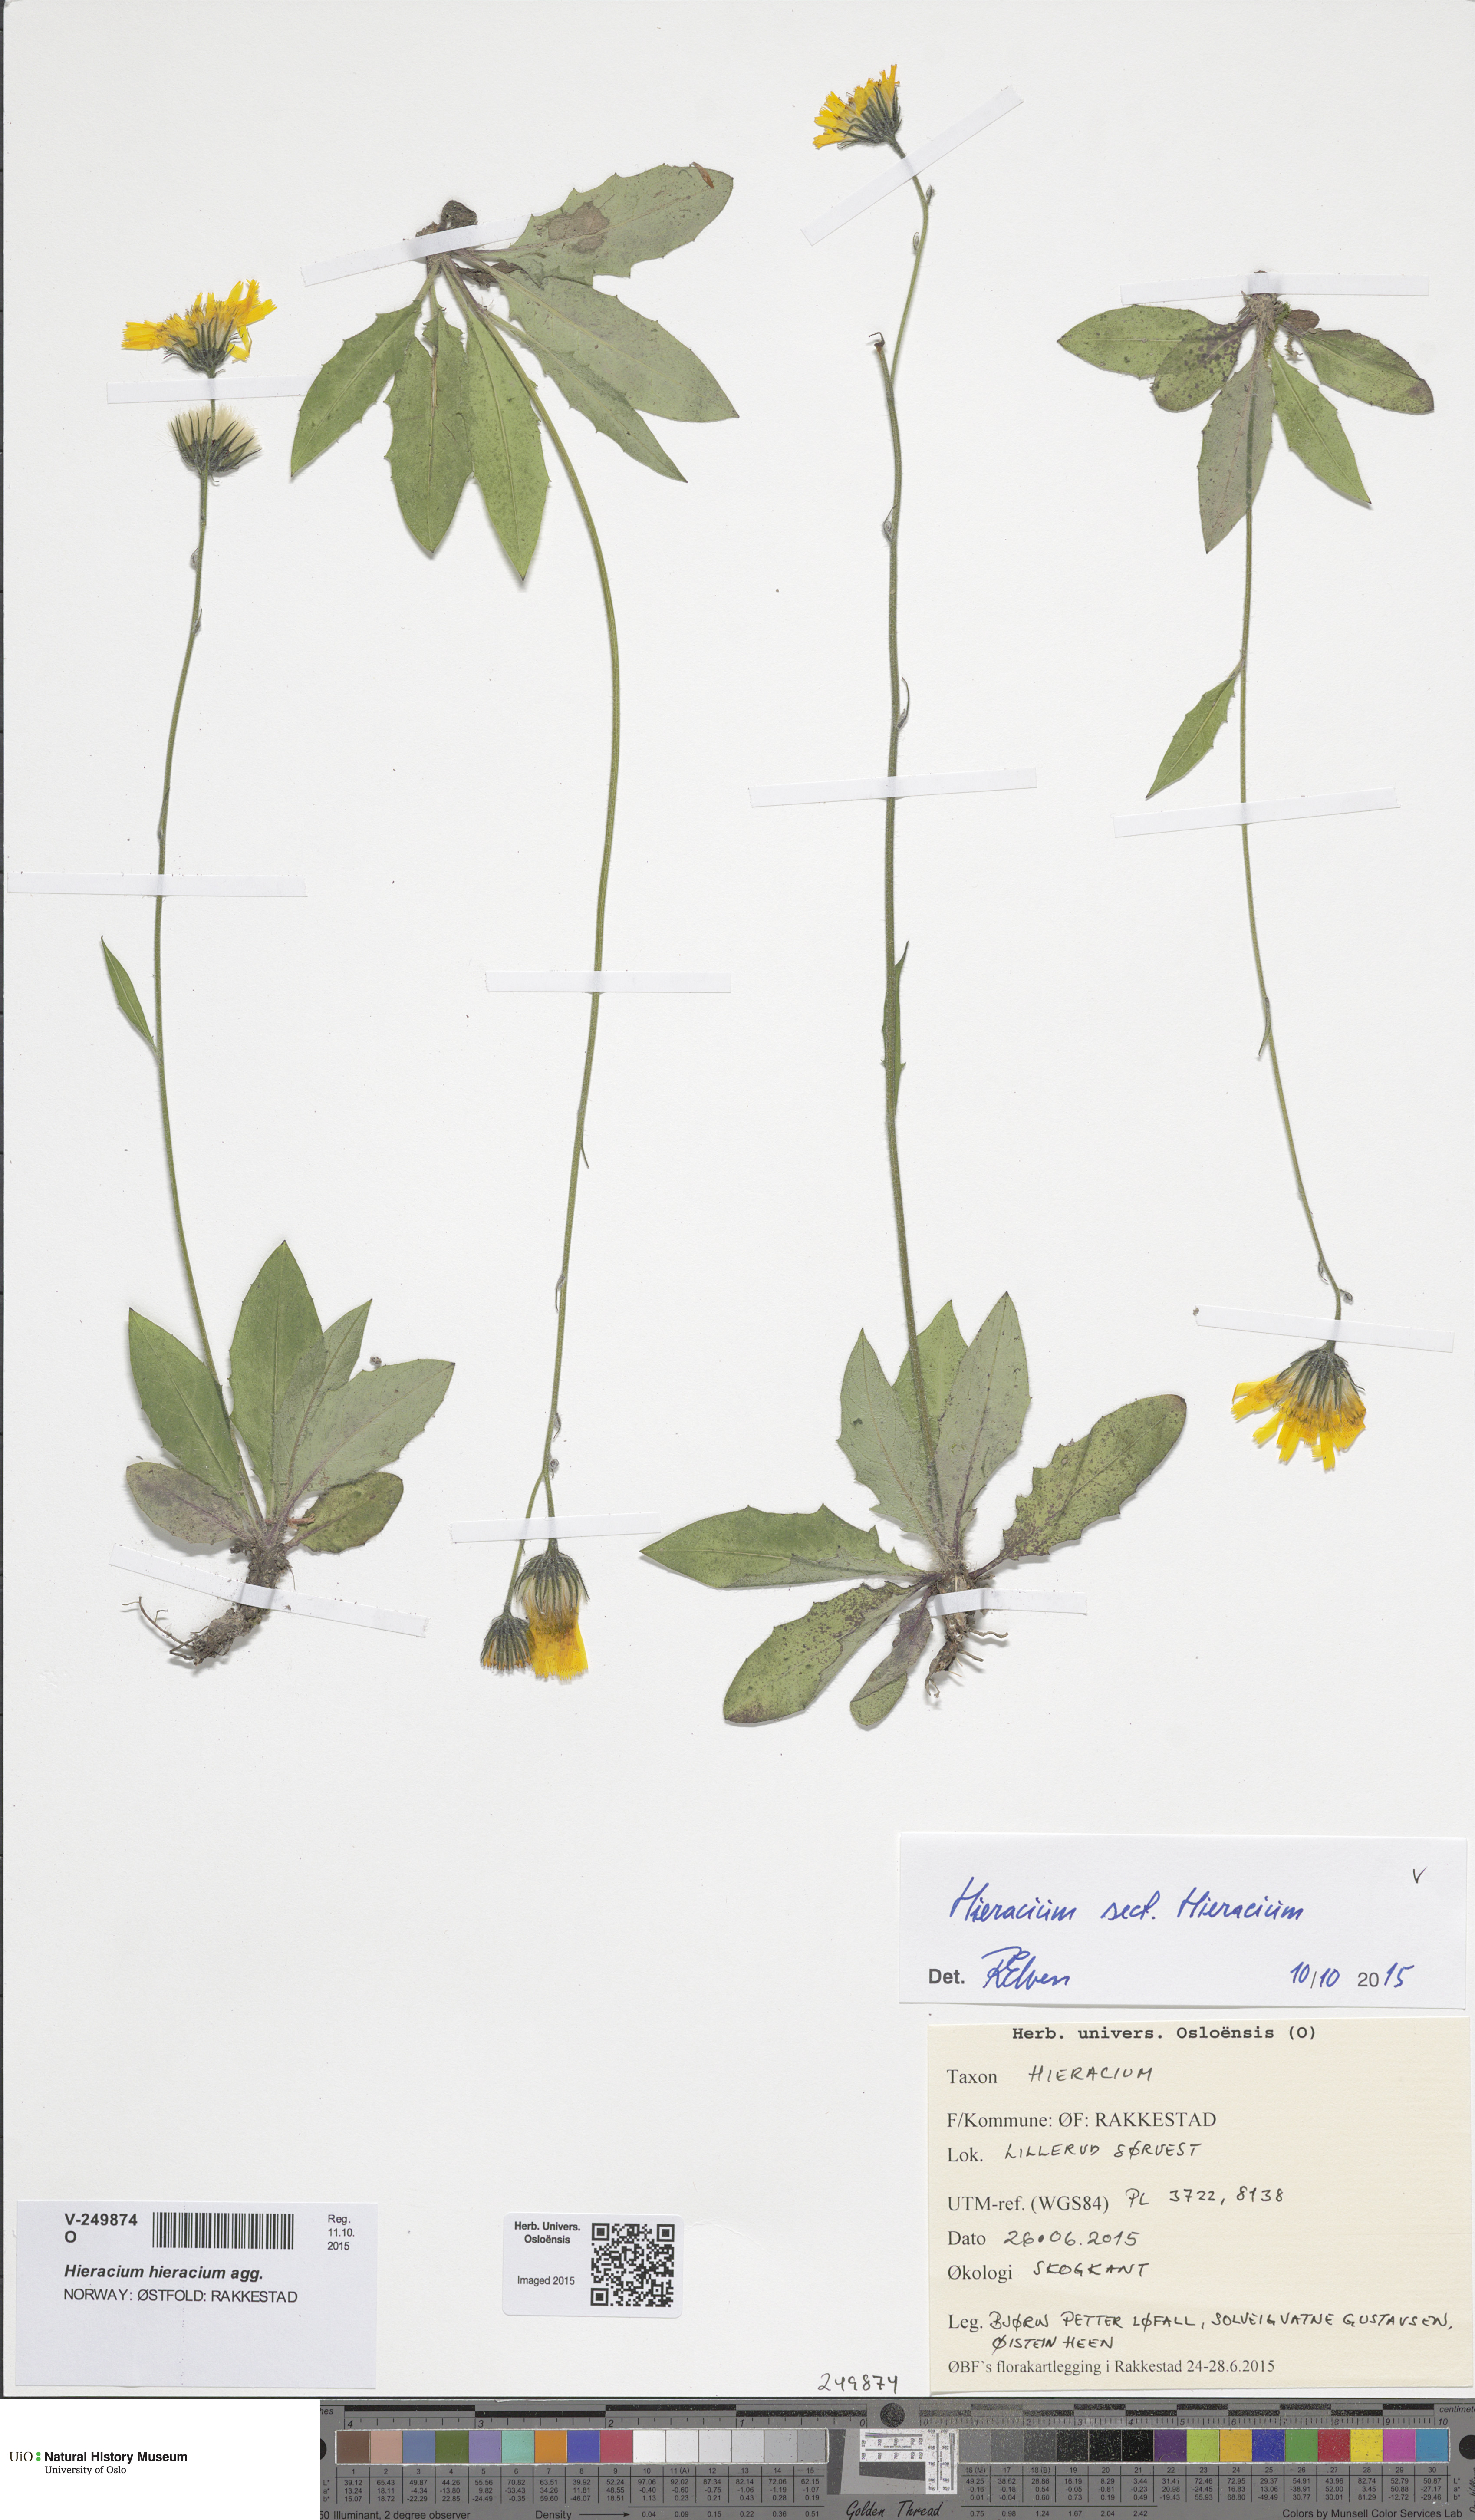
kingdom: Plantae
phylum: Tracheophyta
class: Magnoliopsida
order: Asterales
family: Asteraceae
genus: Hieracium
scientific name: Hieracium
